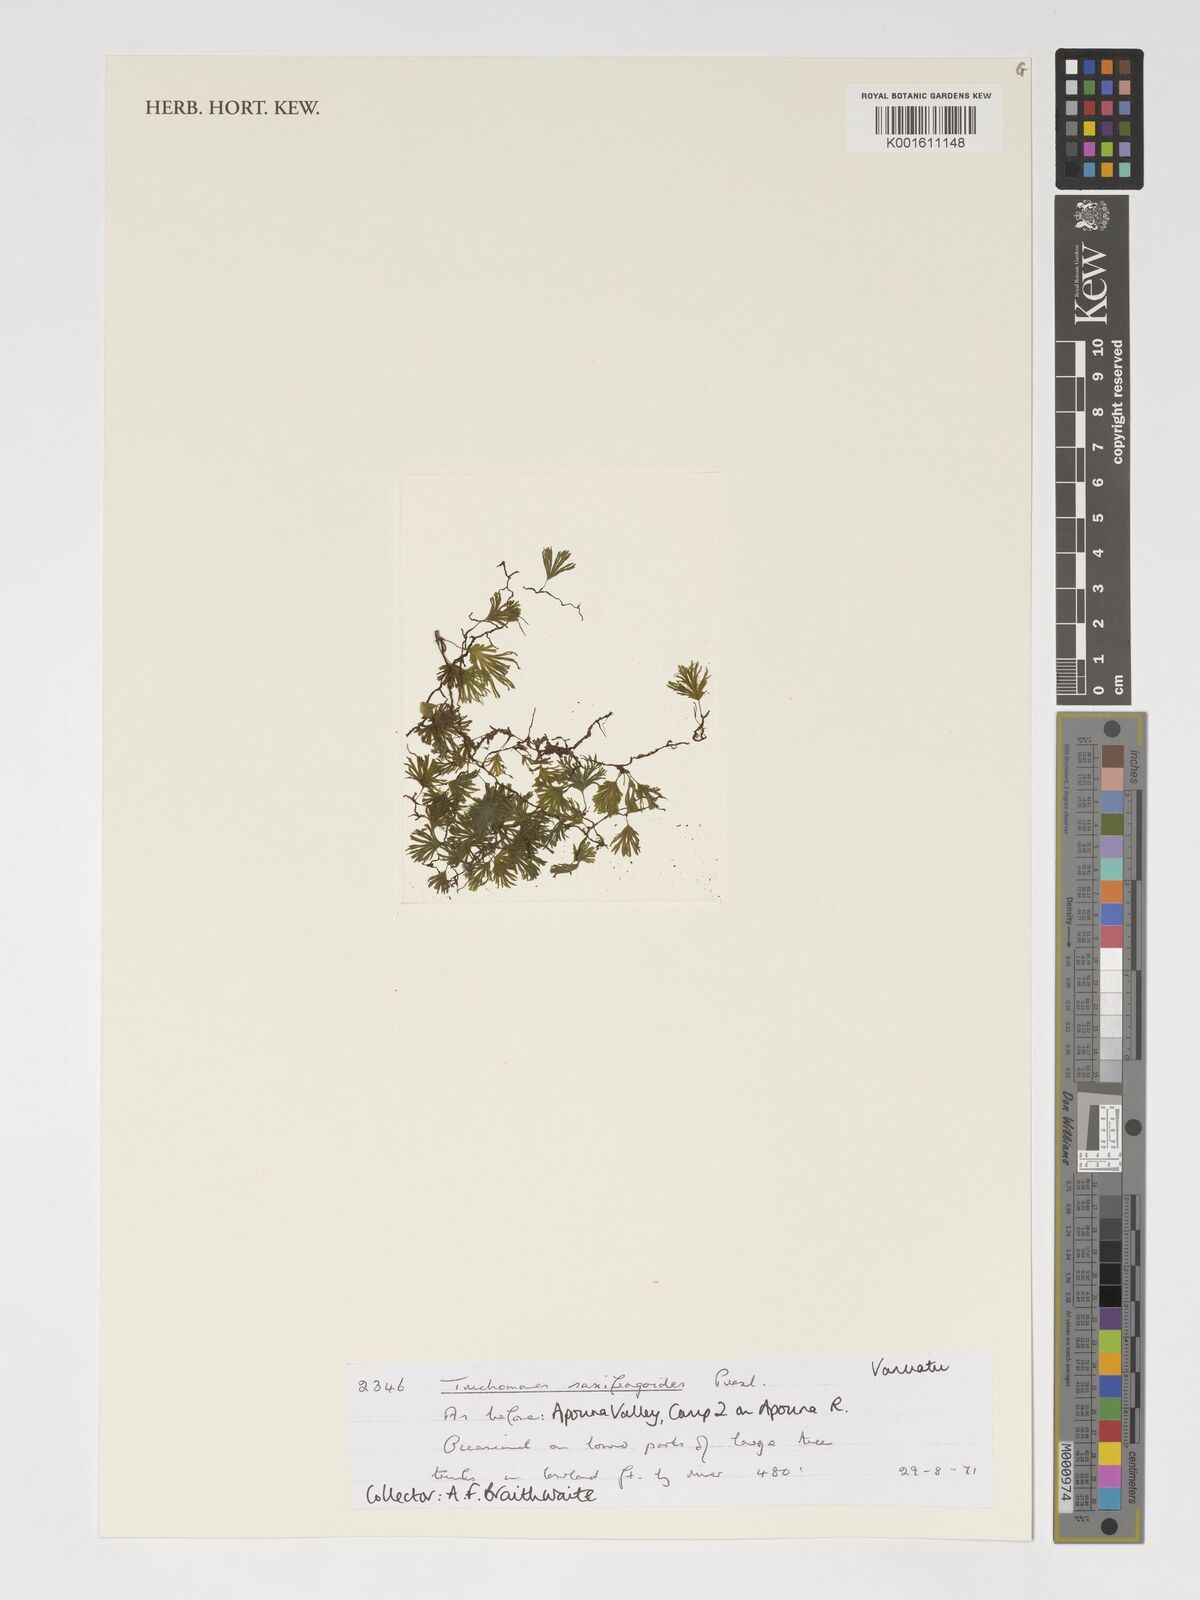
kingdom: Plantae
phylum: Tracheophyta
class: Polypodiopsida
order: Hymenophyllales
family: Hymenophyllaceae
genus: Crepidomanes
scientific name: Crepidomanes saxifragoides
